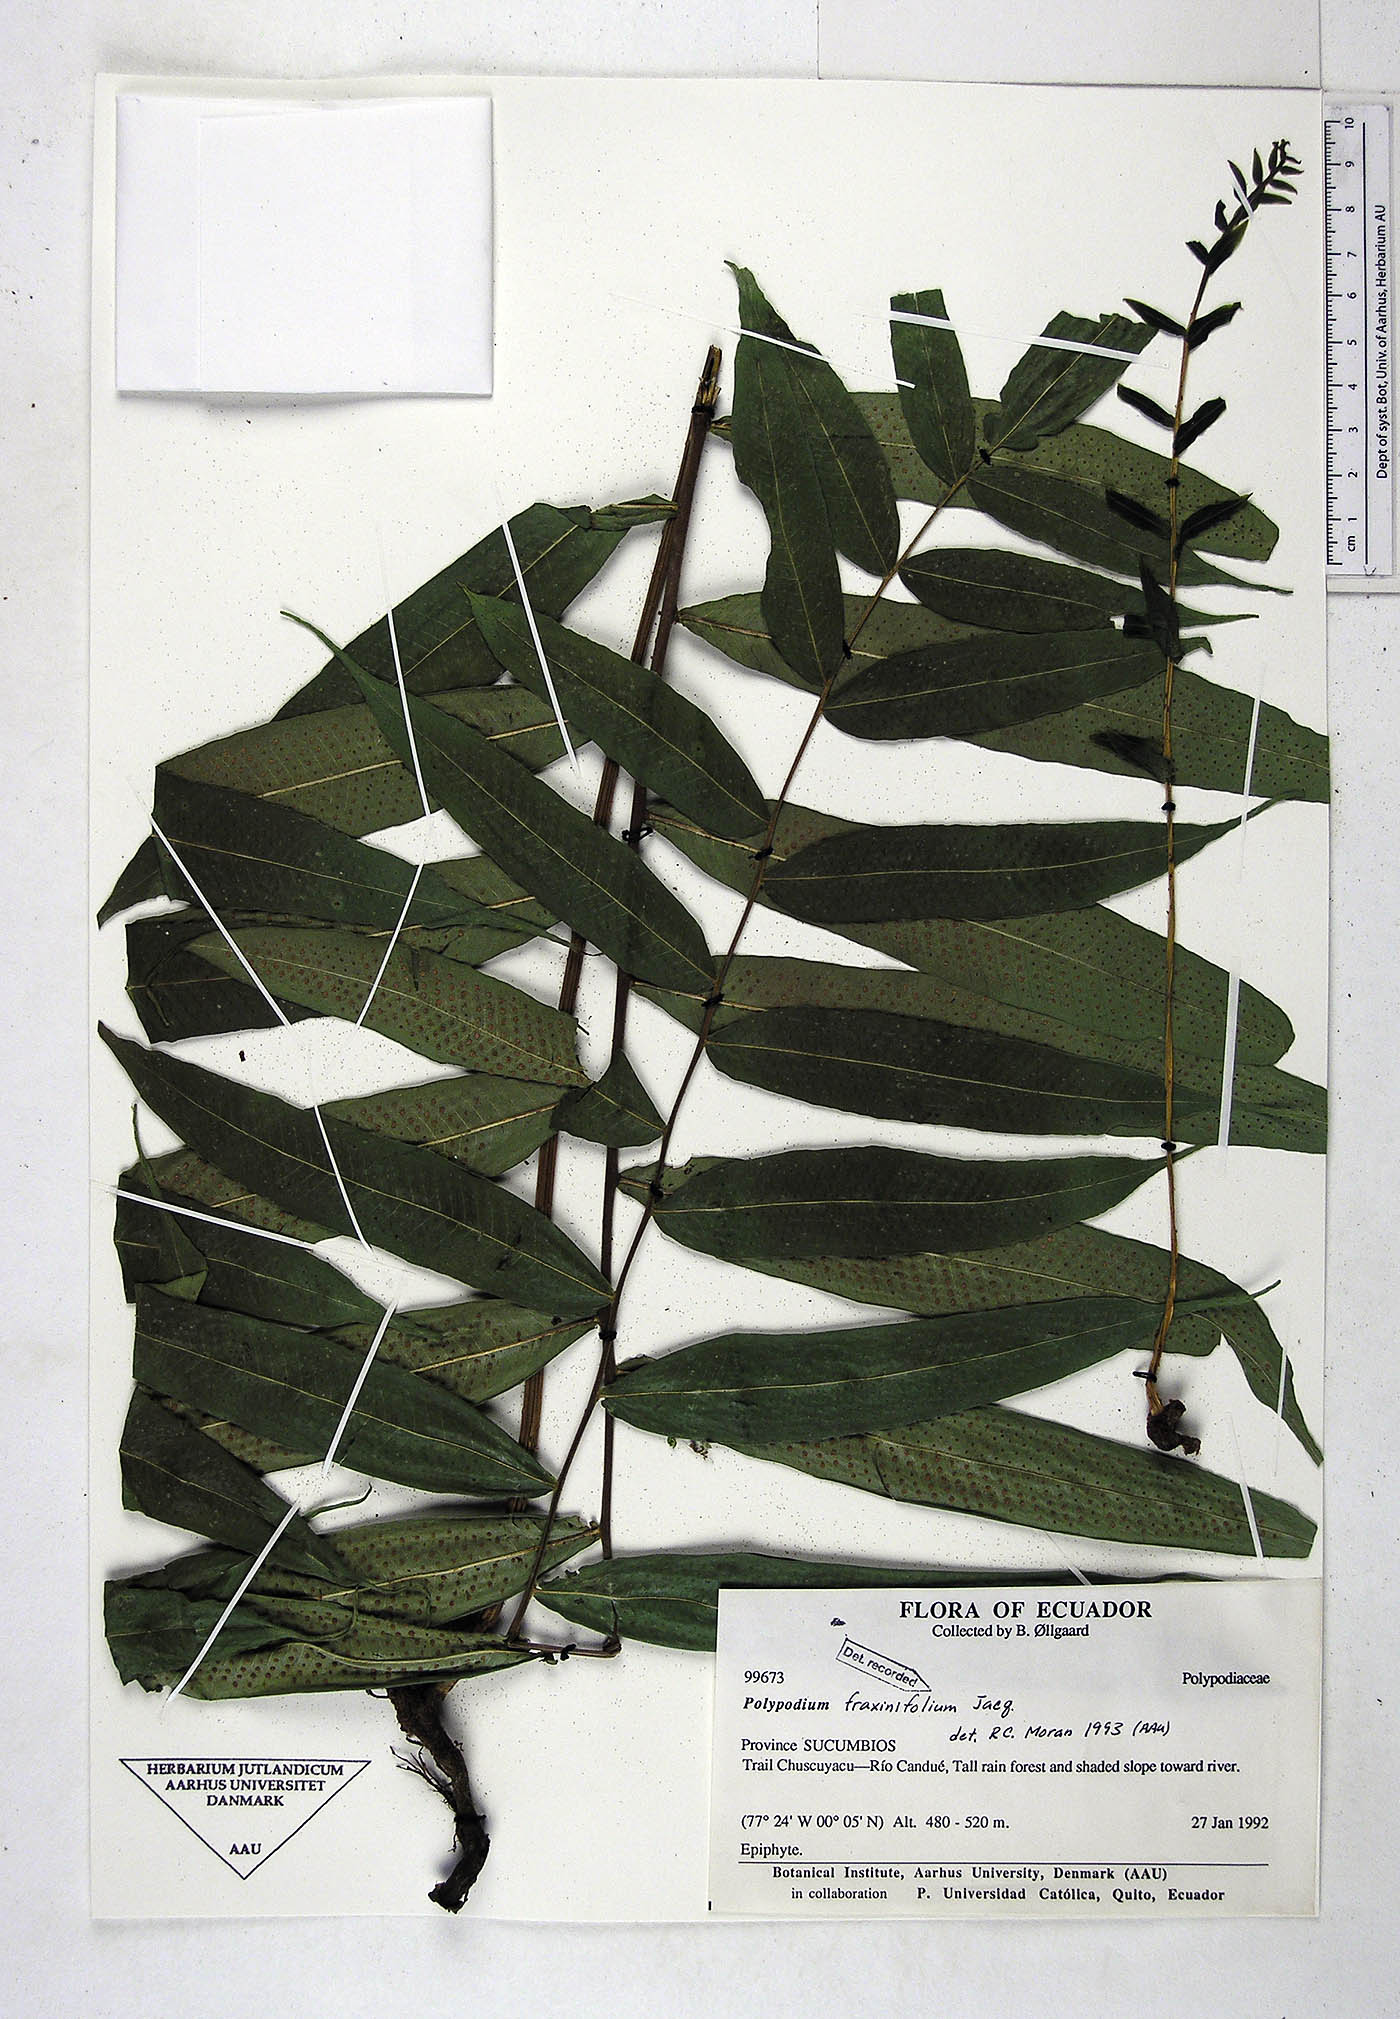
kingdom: Plantae
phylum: Tracheophyta
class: Polypodiopsida
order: Polypodiales
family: Polypodiaceae
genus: Serpocaulon
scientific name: Serpocaulon fraxinifolium
